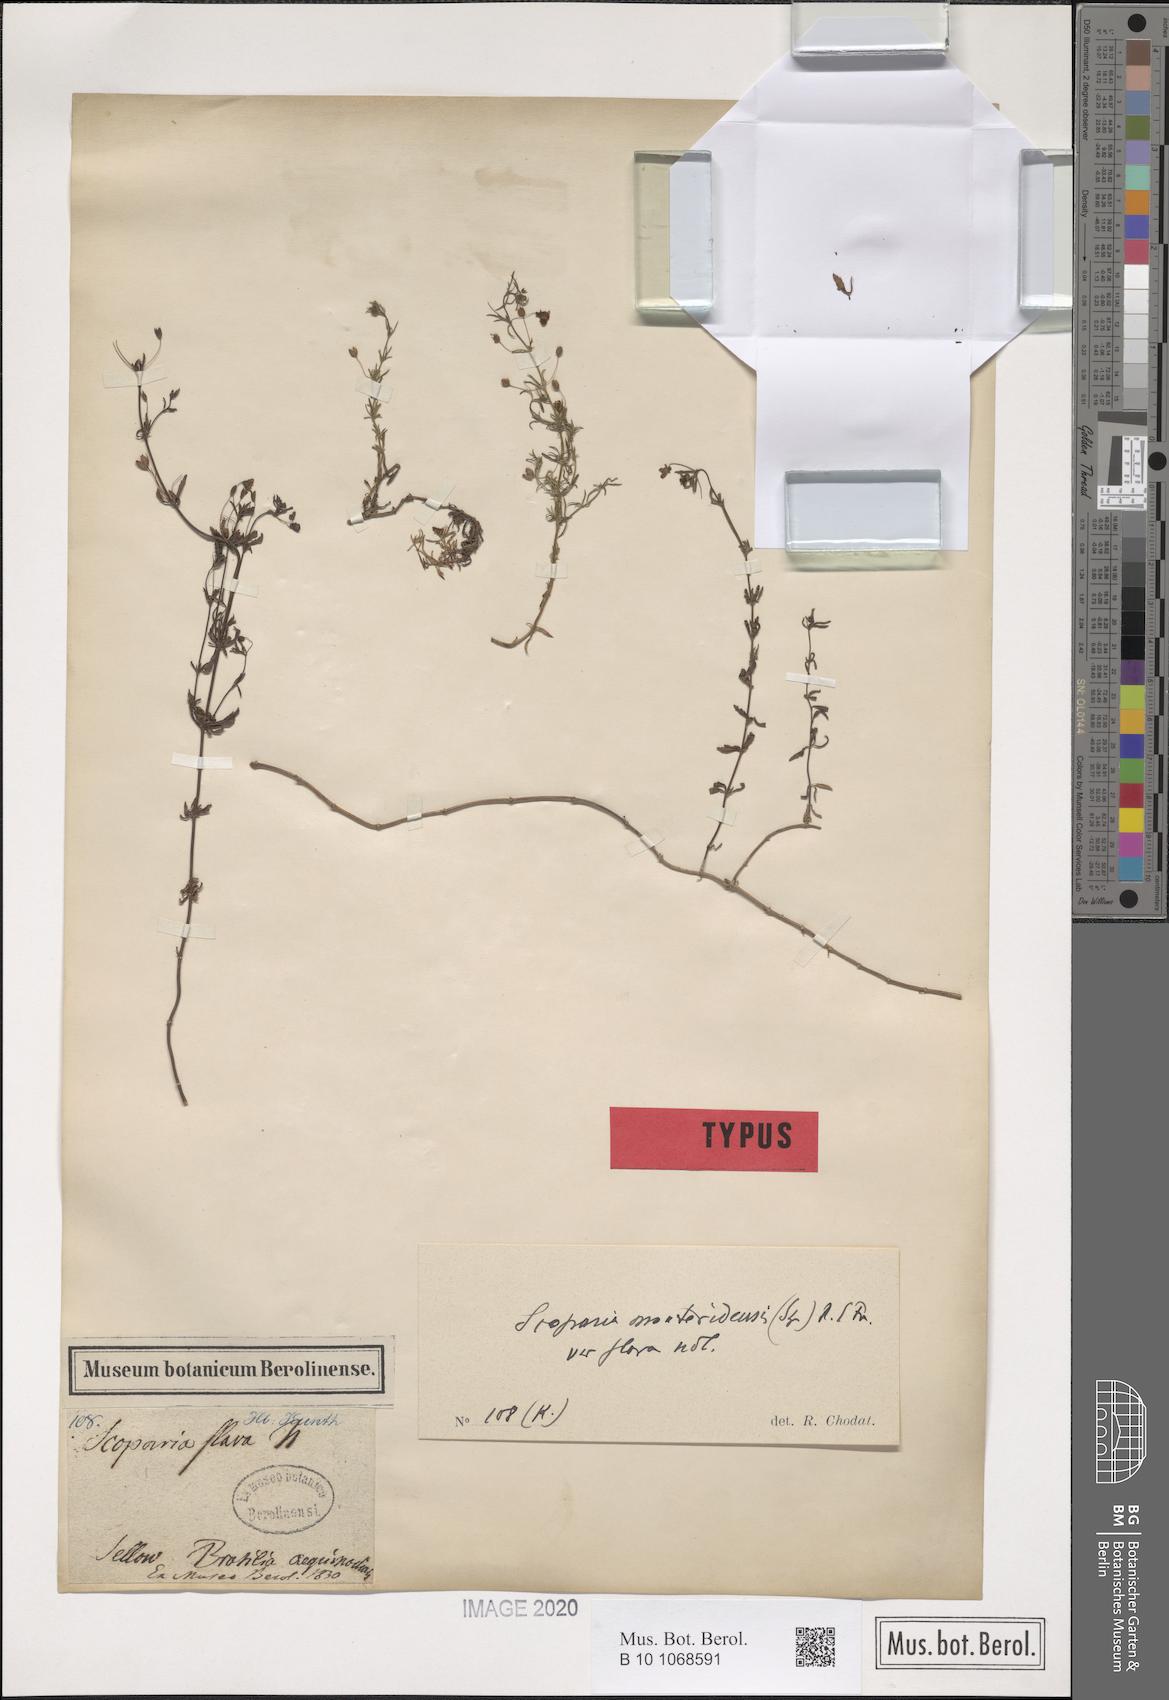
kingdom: Plantae
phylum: Tracheophyta
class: Magnoliopsida
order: Lamiales
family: Plantaginaceae
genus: Scoparia
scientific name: Scoparia montevidensis
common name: Broomwort
